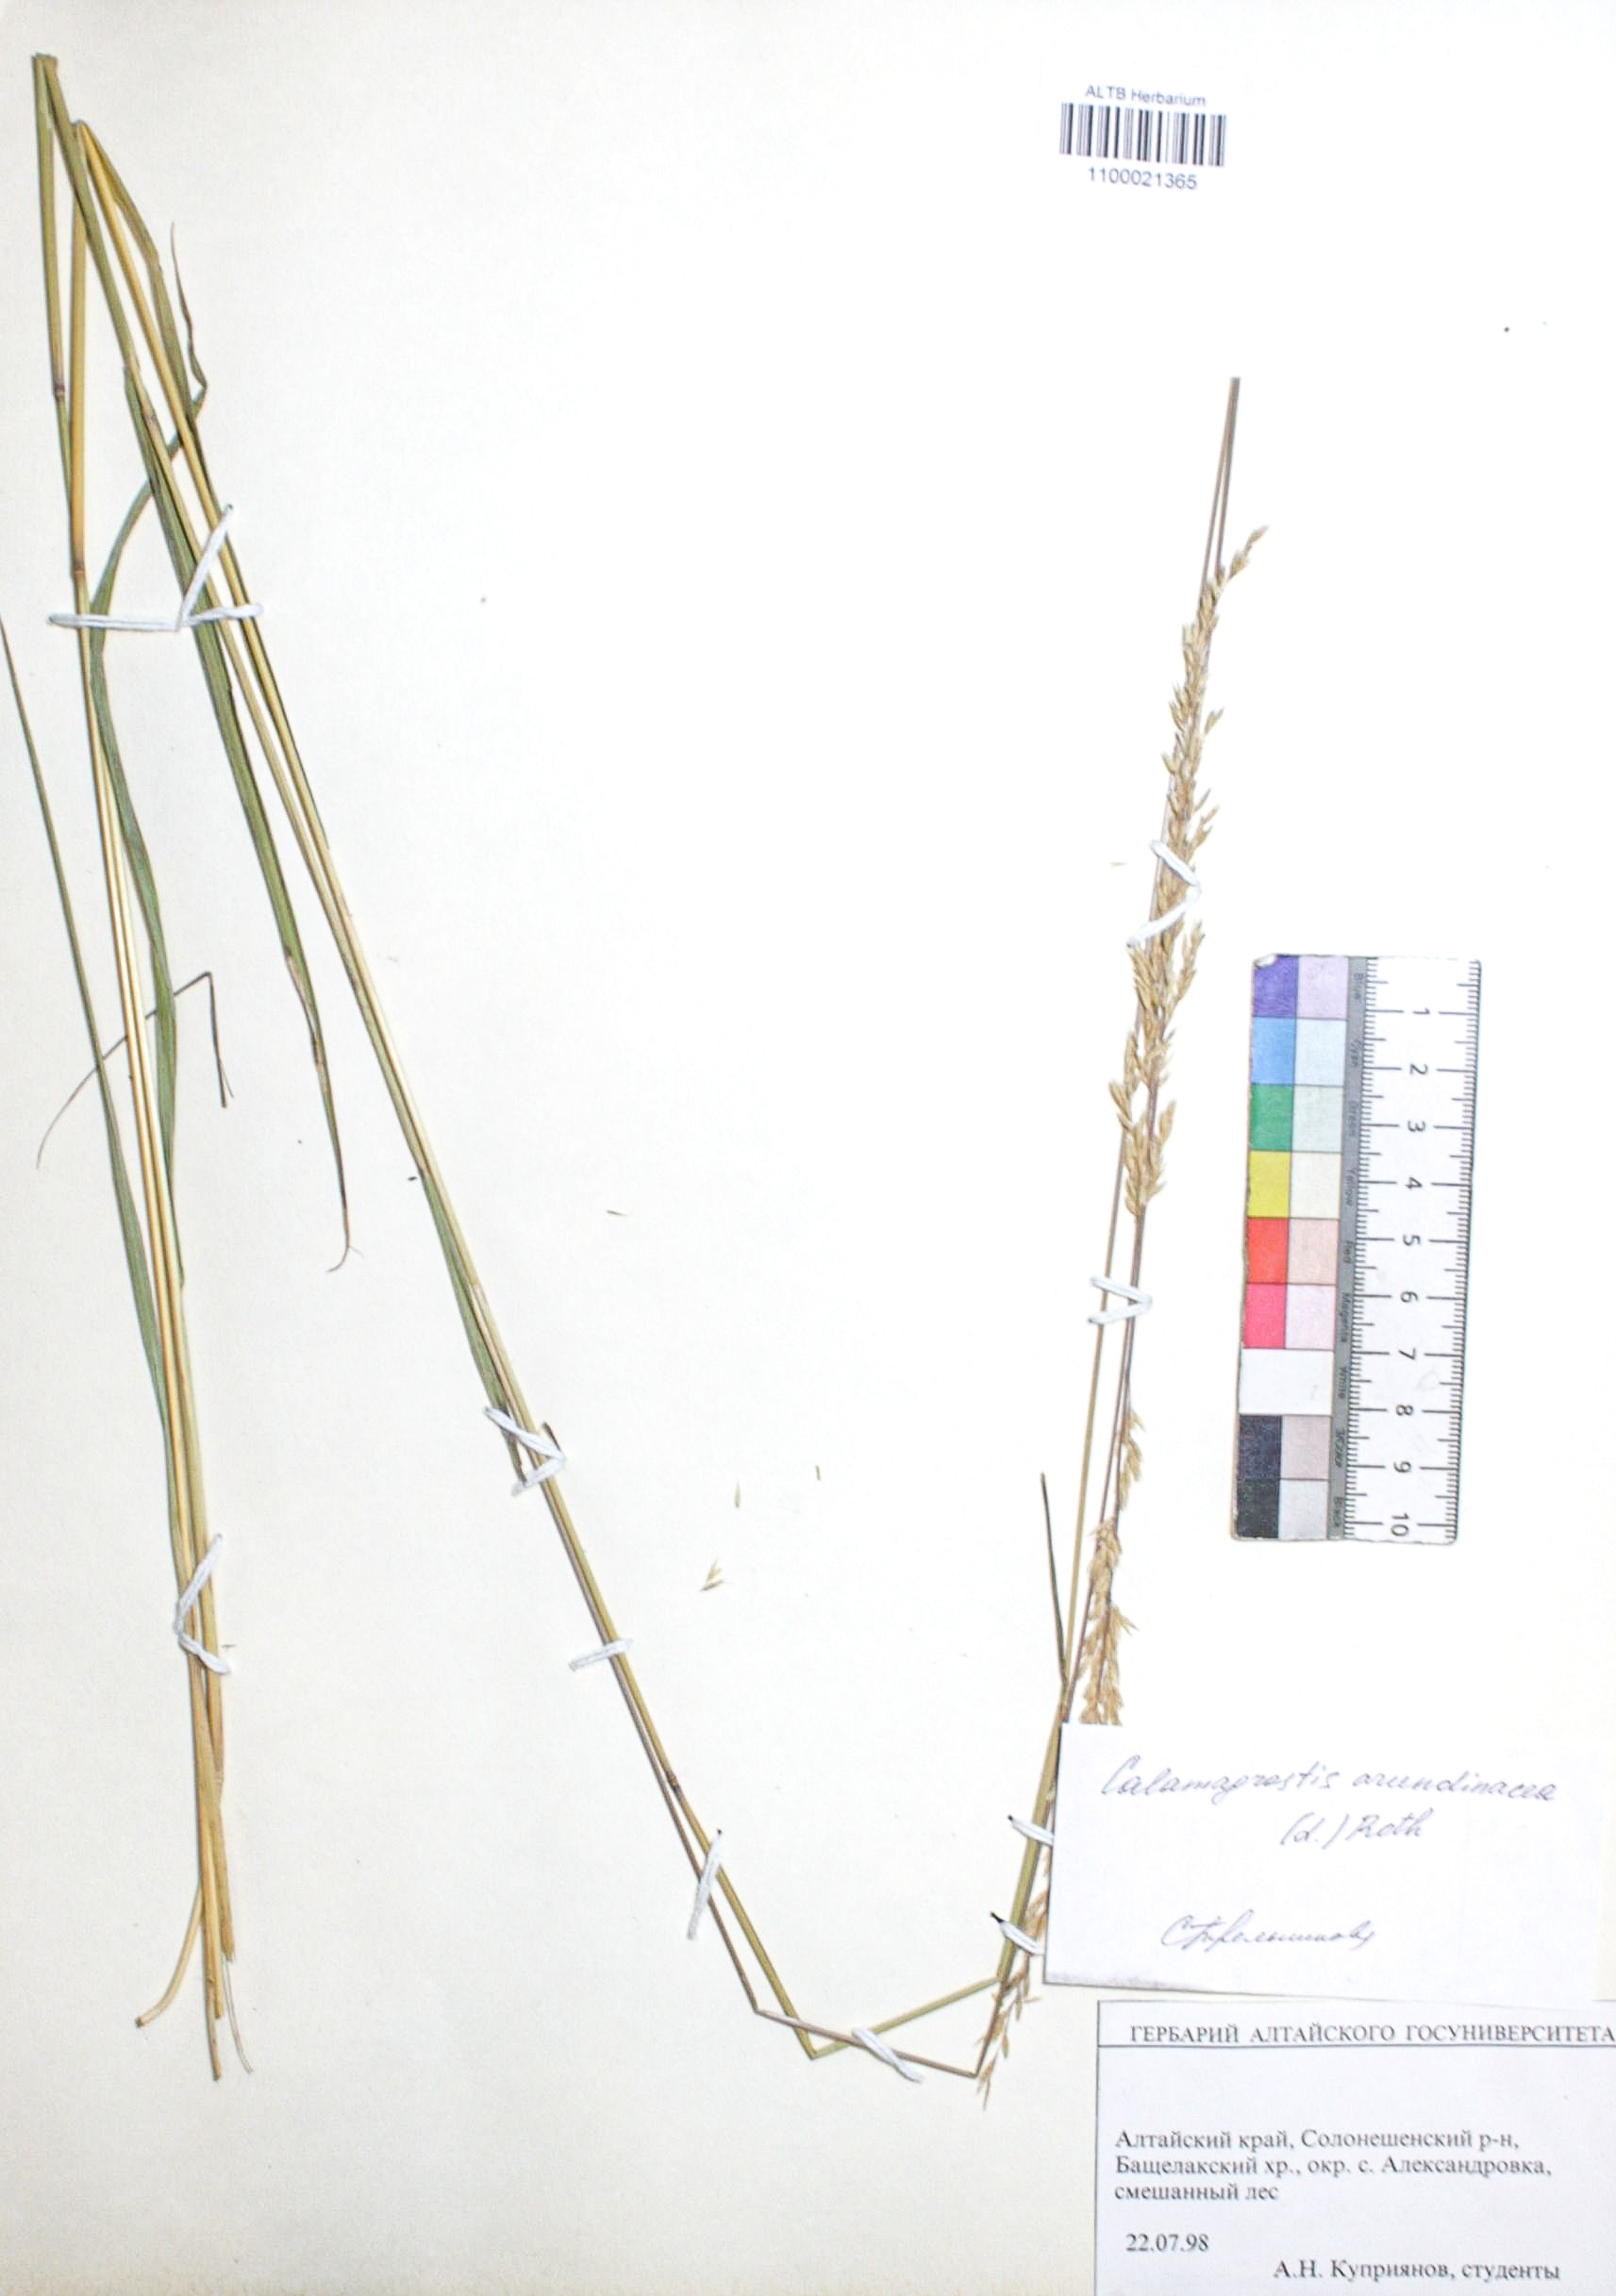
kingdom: Plantae
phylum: Tracheophyta
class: Liliopsida
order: Poales
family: Poaceae
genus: Calamagrostis
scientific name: Calamagrostis arundinacea
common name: Metskastik
